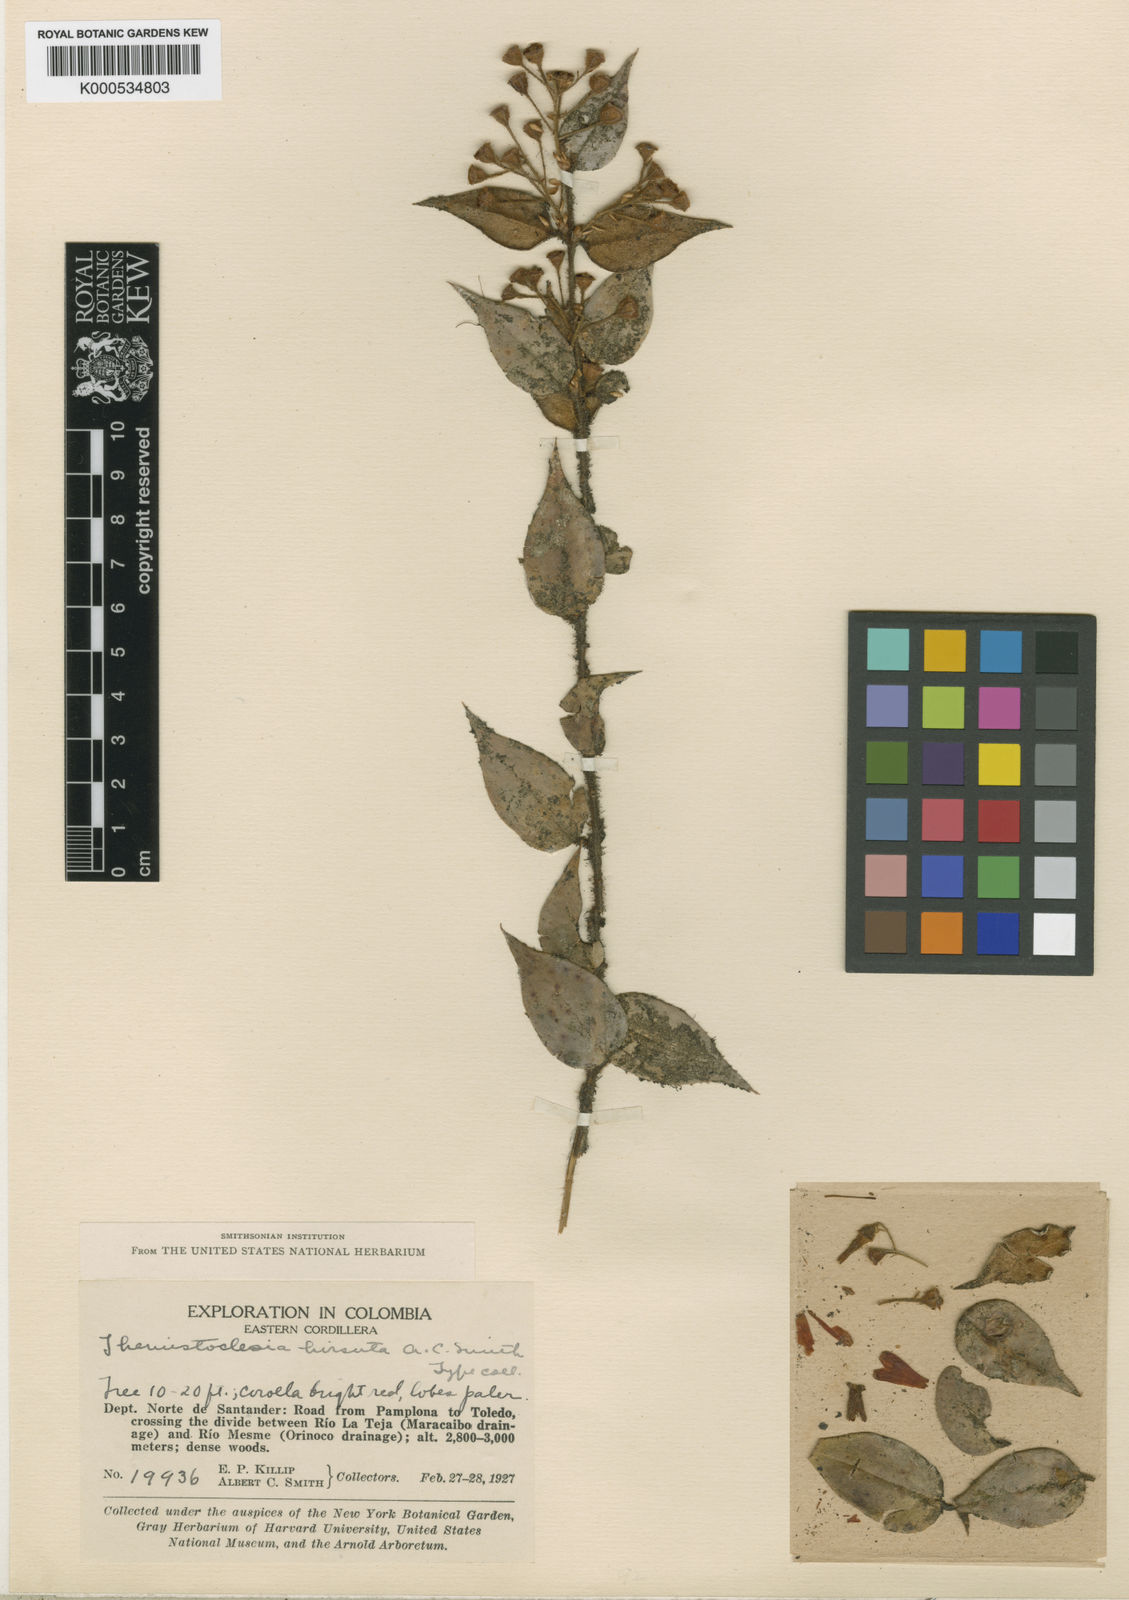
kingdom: Plantae
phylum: Tracheophyta
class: Magnoliopsida
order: Ericales
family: Ericaceae
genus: Themistoclesia
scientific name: Themistoclesia hirsuta
